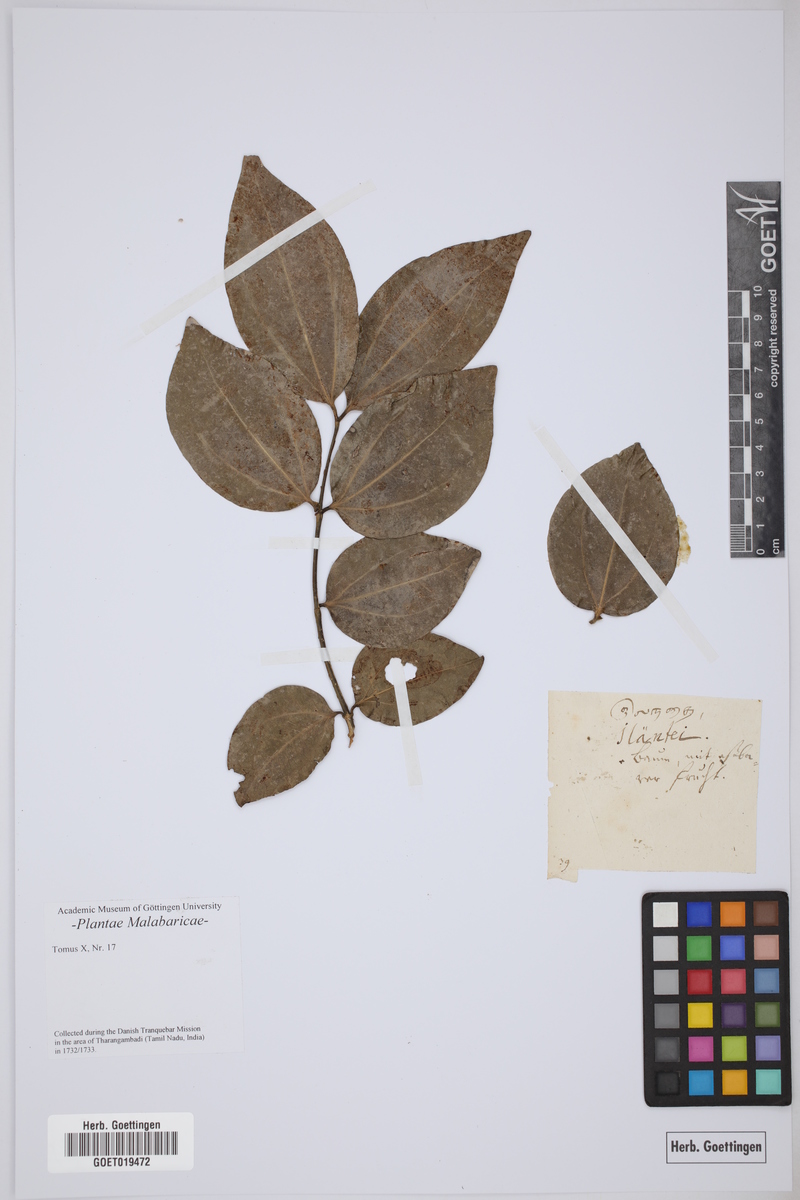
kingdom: Plantae
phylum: Tracheophyta
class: Magnoliopsida
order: Rosales
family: Rhamnaceae
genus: Ziziphus
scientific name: Ziziphus jujuba
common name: Jujube red date
